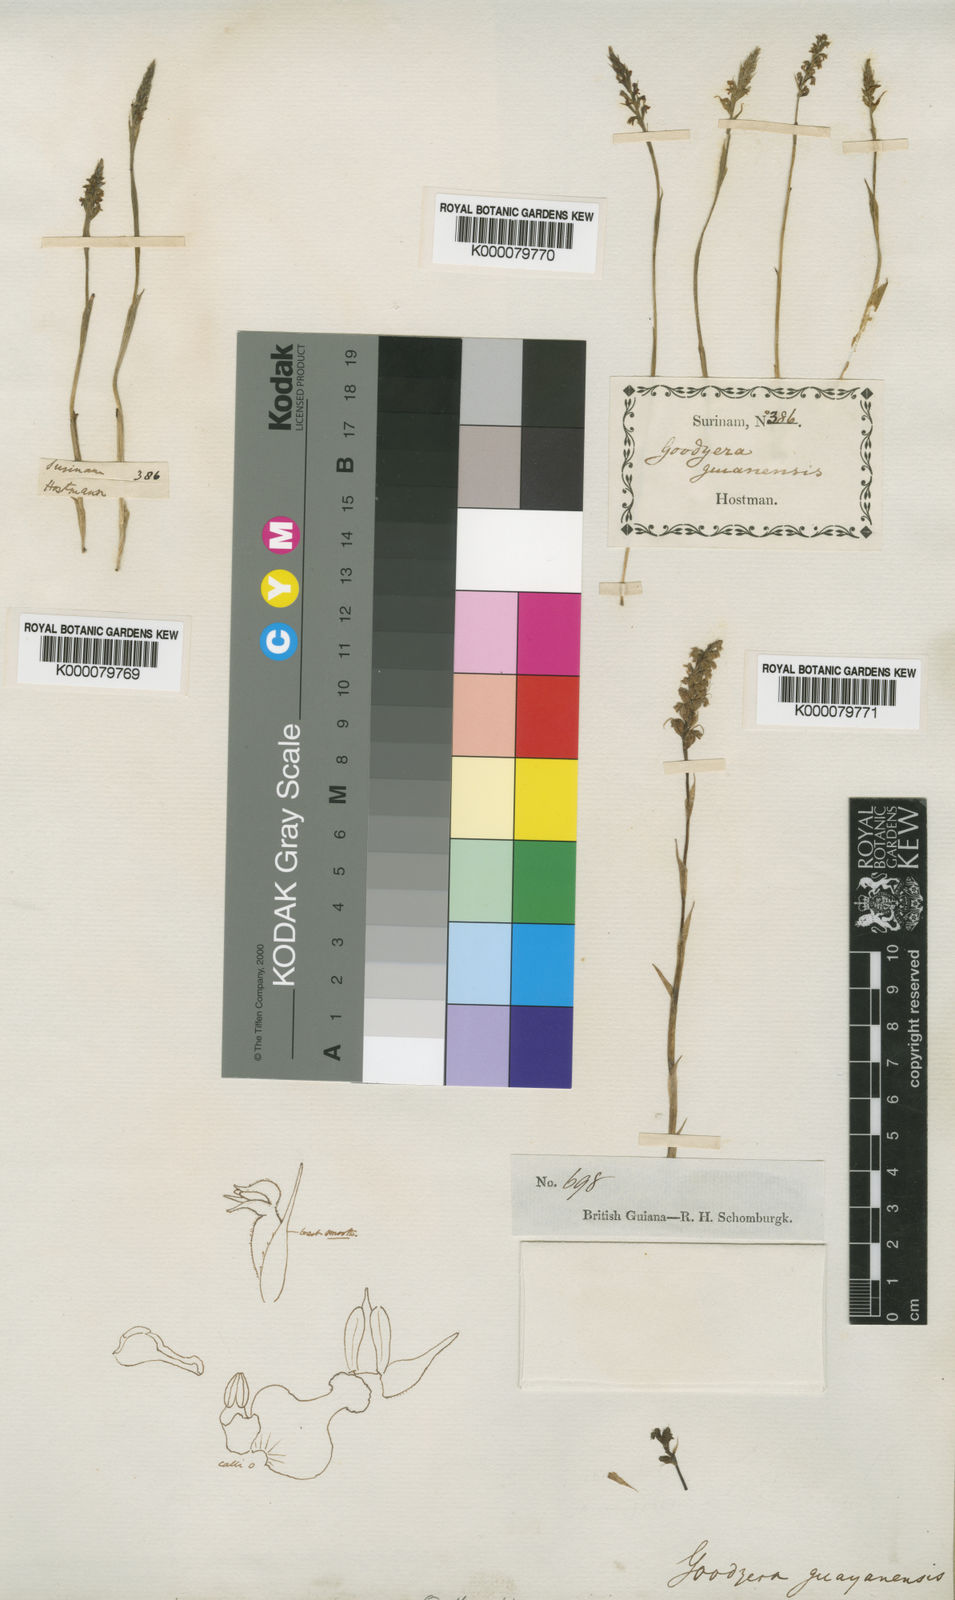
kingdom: Plantae
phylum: Tracheophyta
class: Liliopsida
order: Asparagales
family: Orchidaceae
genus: Brachystele
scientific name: Brachystele guayanensis
